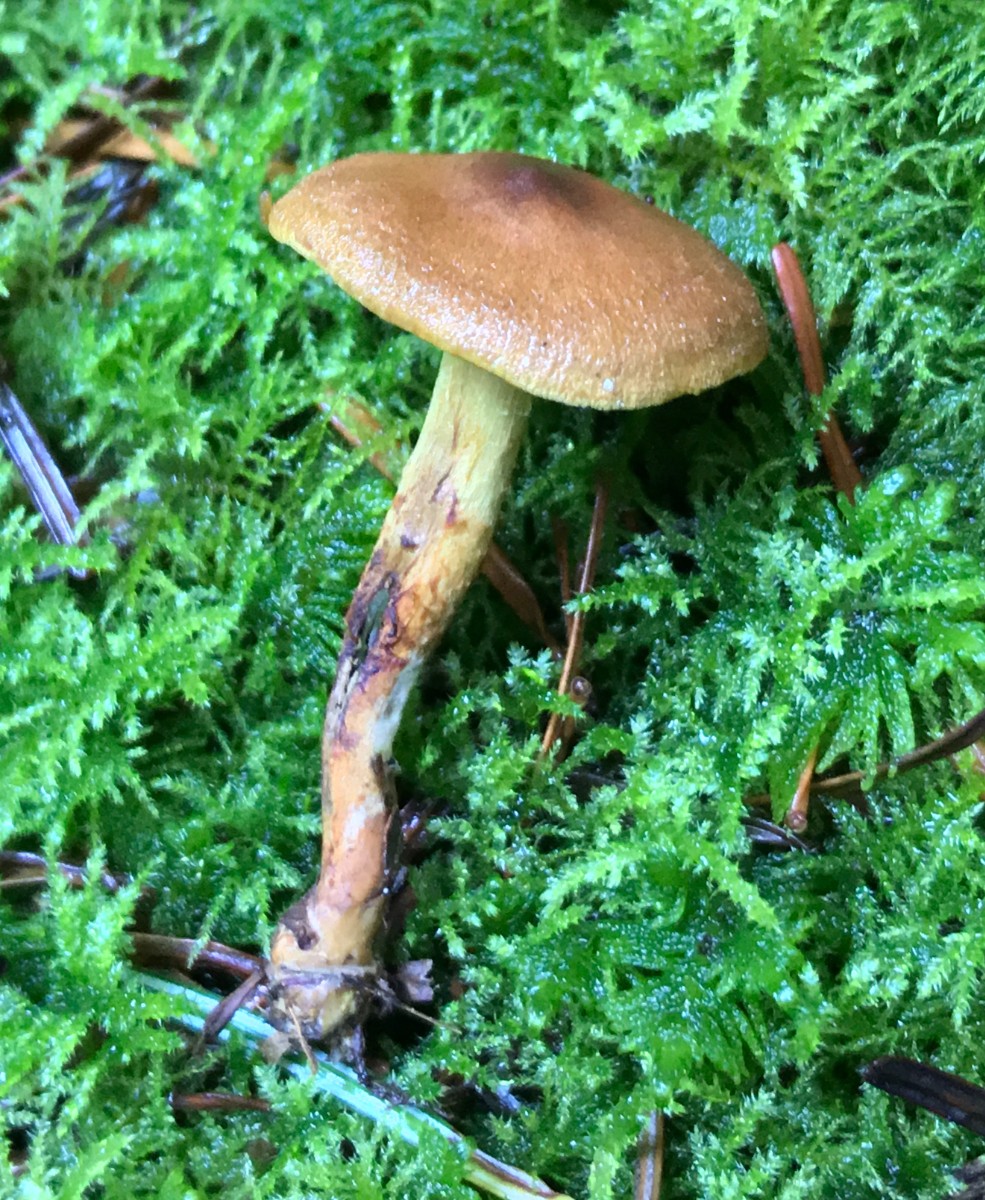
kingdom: Fungi
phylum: Basidiomycota
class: Agaricomycetes
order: Agaricales
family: Cortinariaceae
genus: Cortinarius
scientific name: Cortinarius
